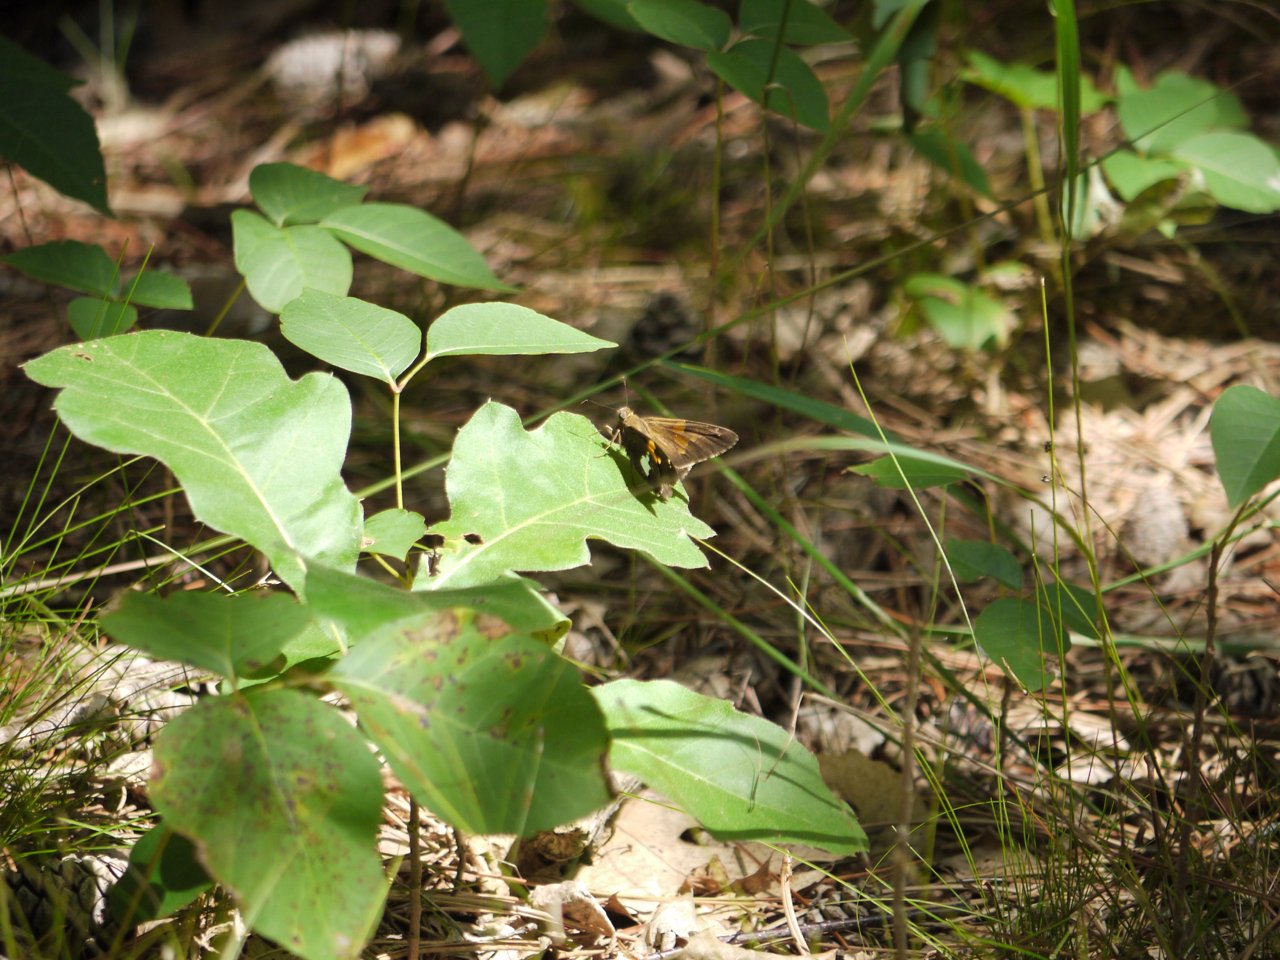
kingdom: Animalia
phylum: Arthropoda
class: Insecta
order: Lepidoptera
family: Hesperiidae
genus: Epargyreus
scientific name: Epargyreus clarus
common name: Silver-spotted Skipper
